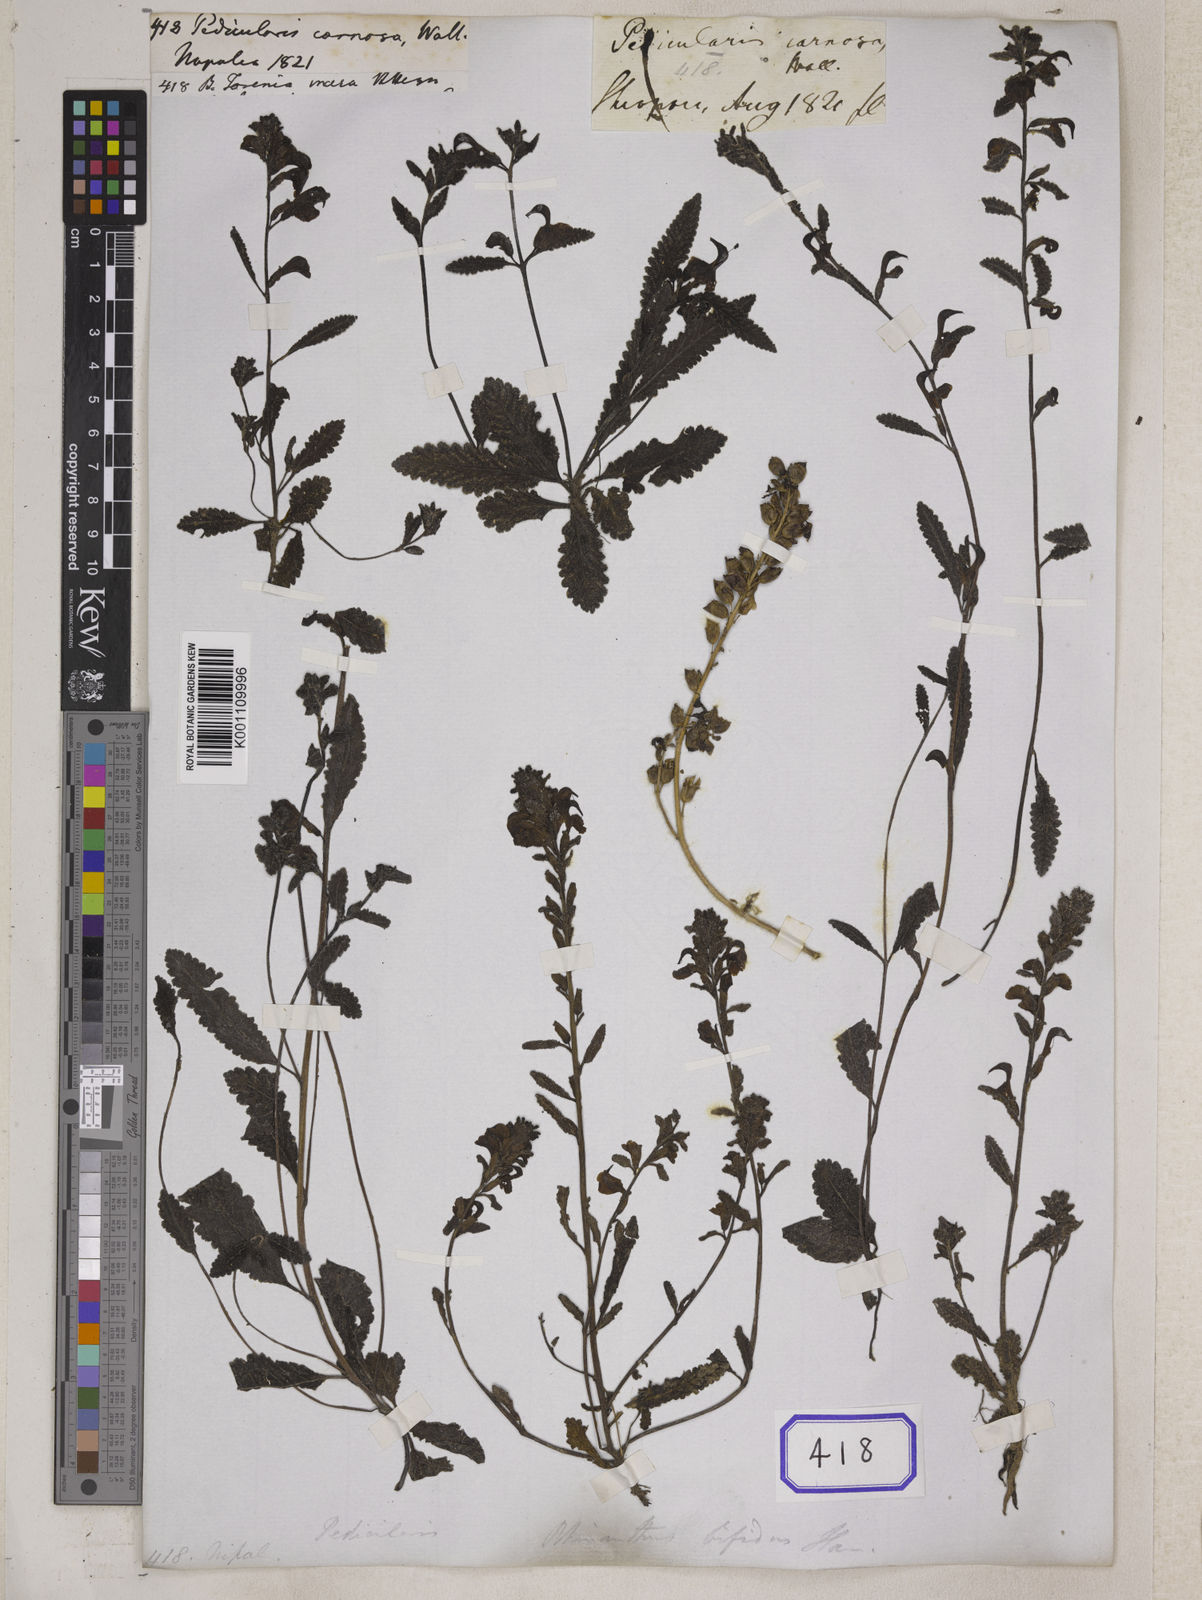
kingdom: Plantae
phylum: Tracheophyta
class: Magnoliopsida
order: Lamiales
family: Orobanchaceae
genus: Pedicularis
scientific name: Pedicularis bifida
